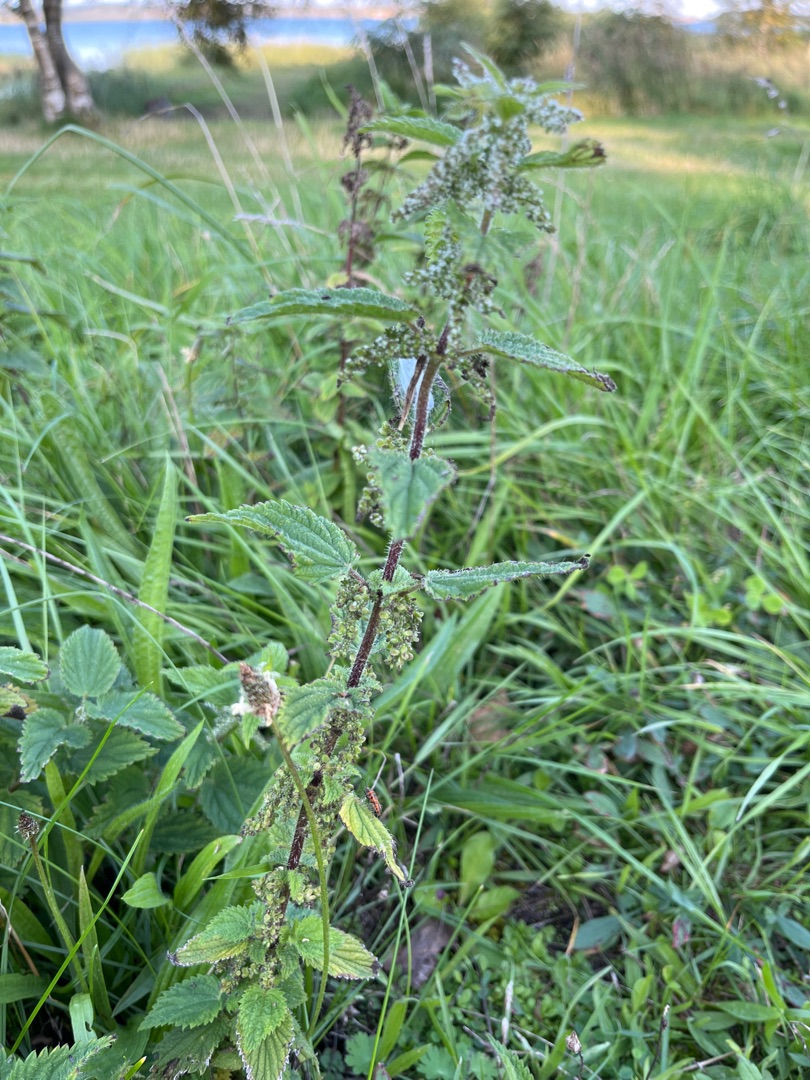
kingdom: Plantae
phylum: Tracheophyta
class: Magnoliopsida
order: Rosales
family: Urticaceae
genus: Urtica
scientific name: Urtica dioica
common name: Stor nælde
